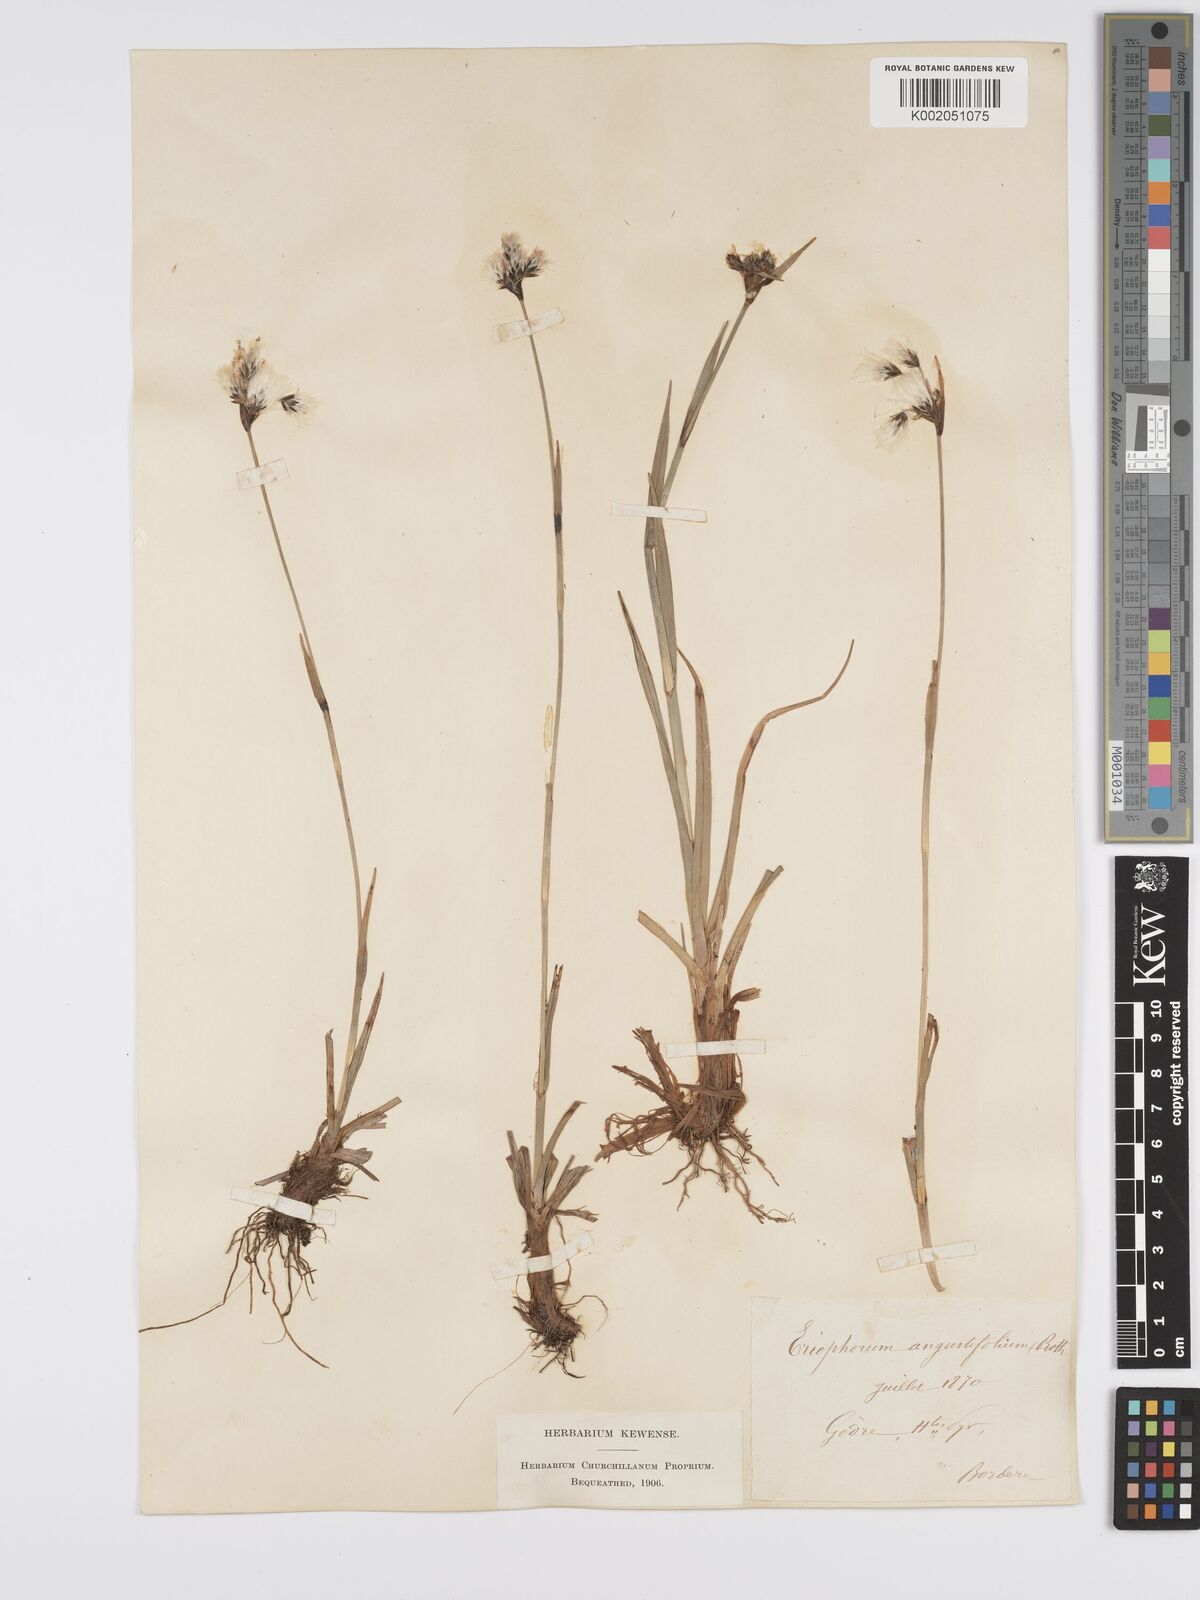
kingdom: Plantae
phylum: Tracheophyta
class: Liliopsida
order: Poales
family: Cyperaceae
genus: Eriophorum
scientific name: Eriophorum angustifolium
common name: Common cottongrass
